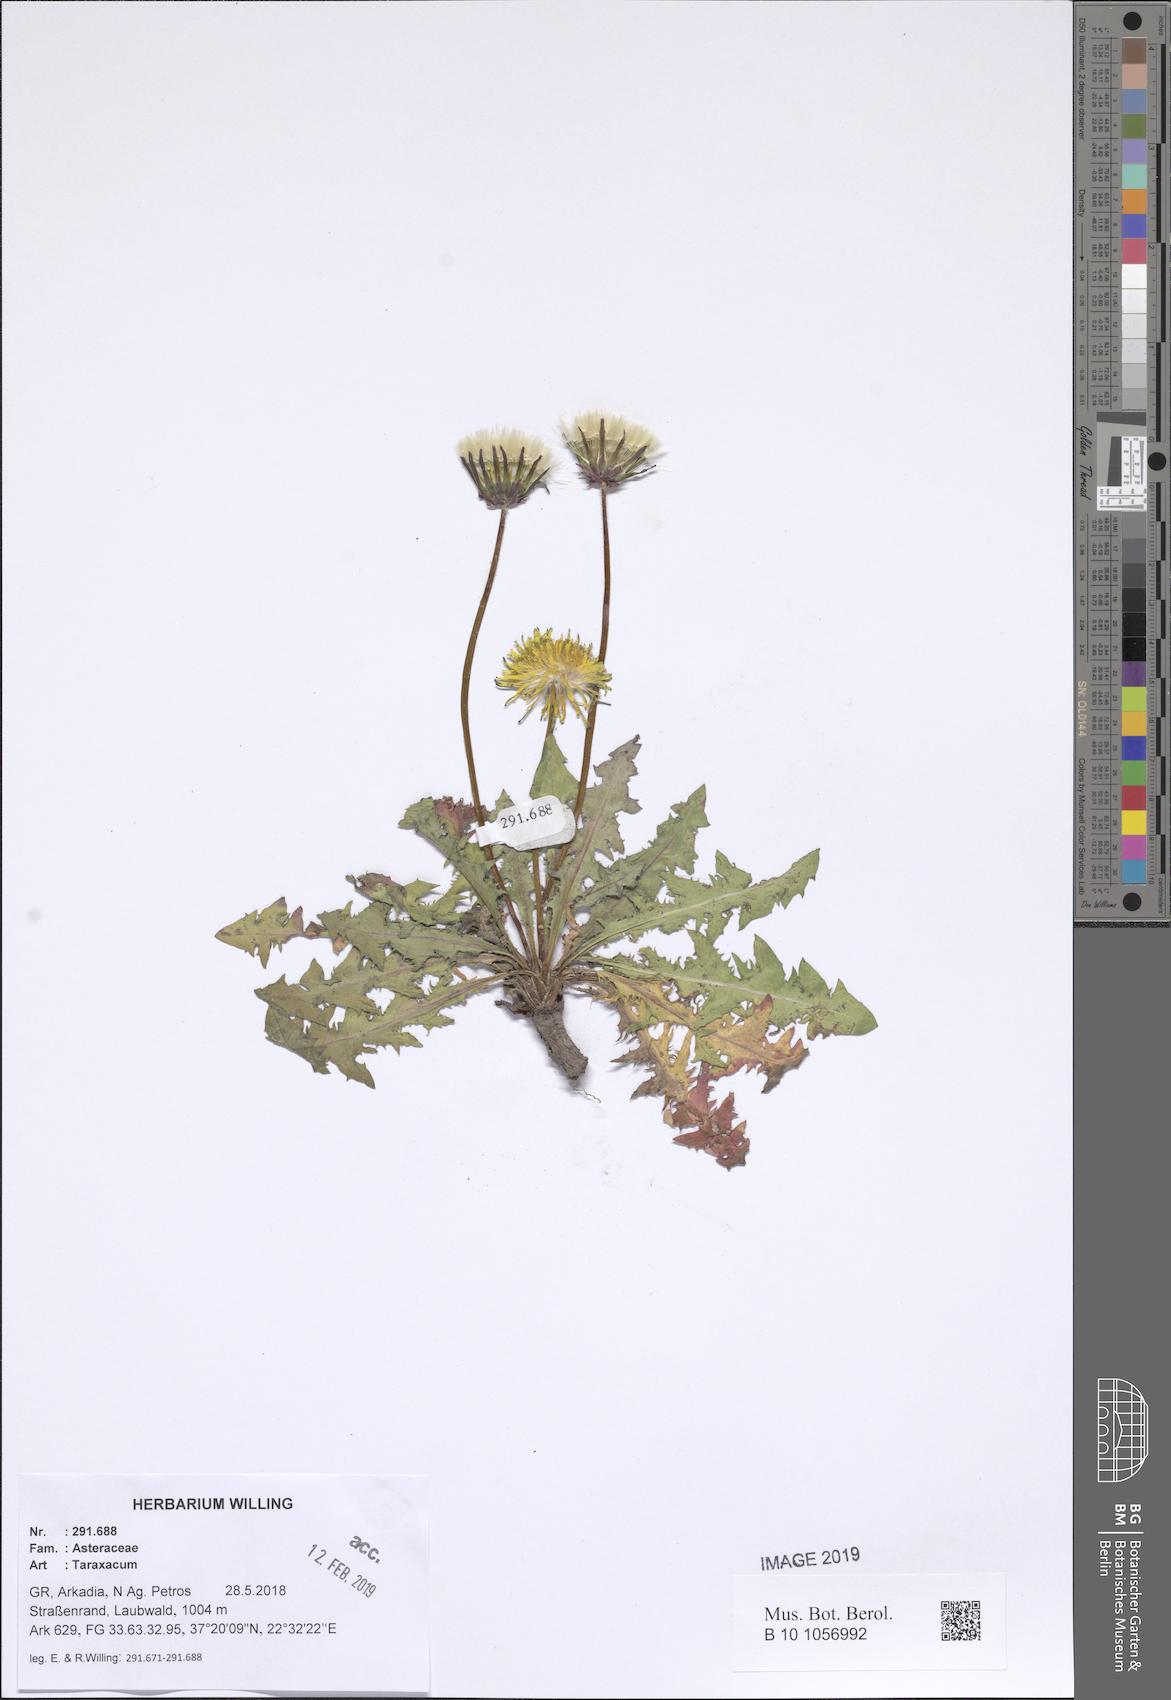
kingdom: Plantae
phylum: Tracheophyta
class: Magnoliopsida
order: Asterales
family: Asteraceae
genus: Taraxacum
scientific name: Taraxacum
